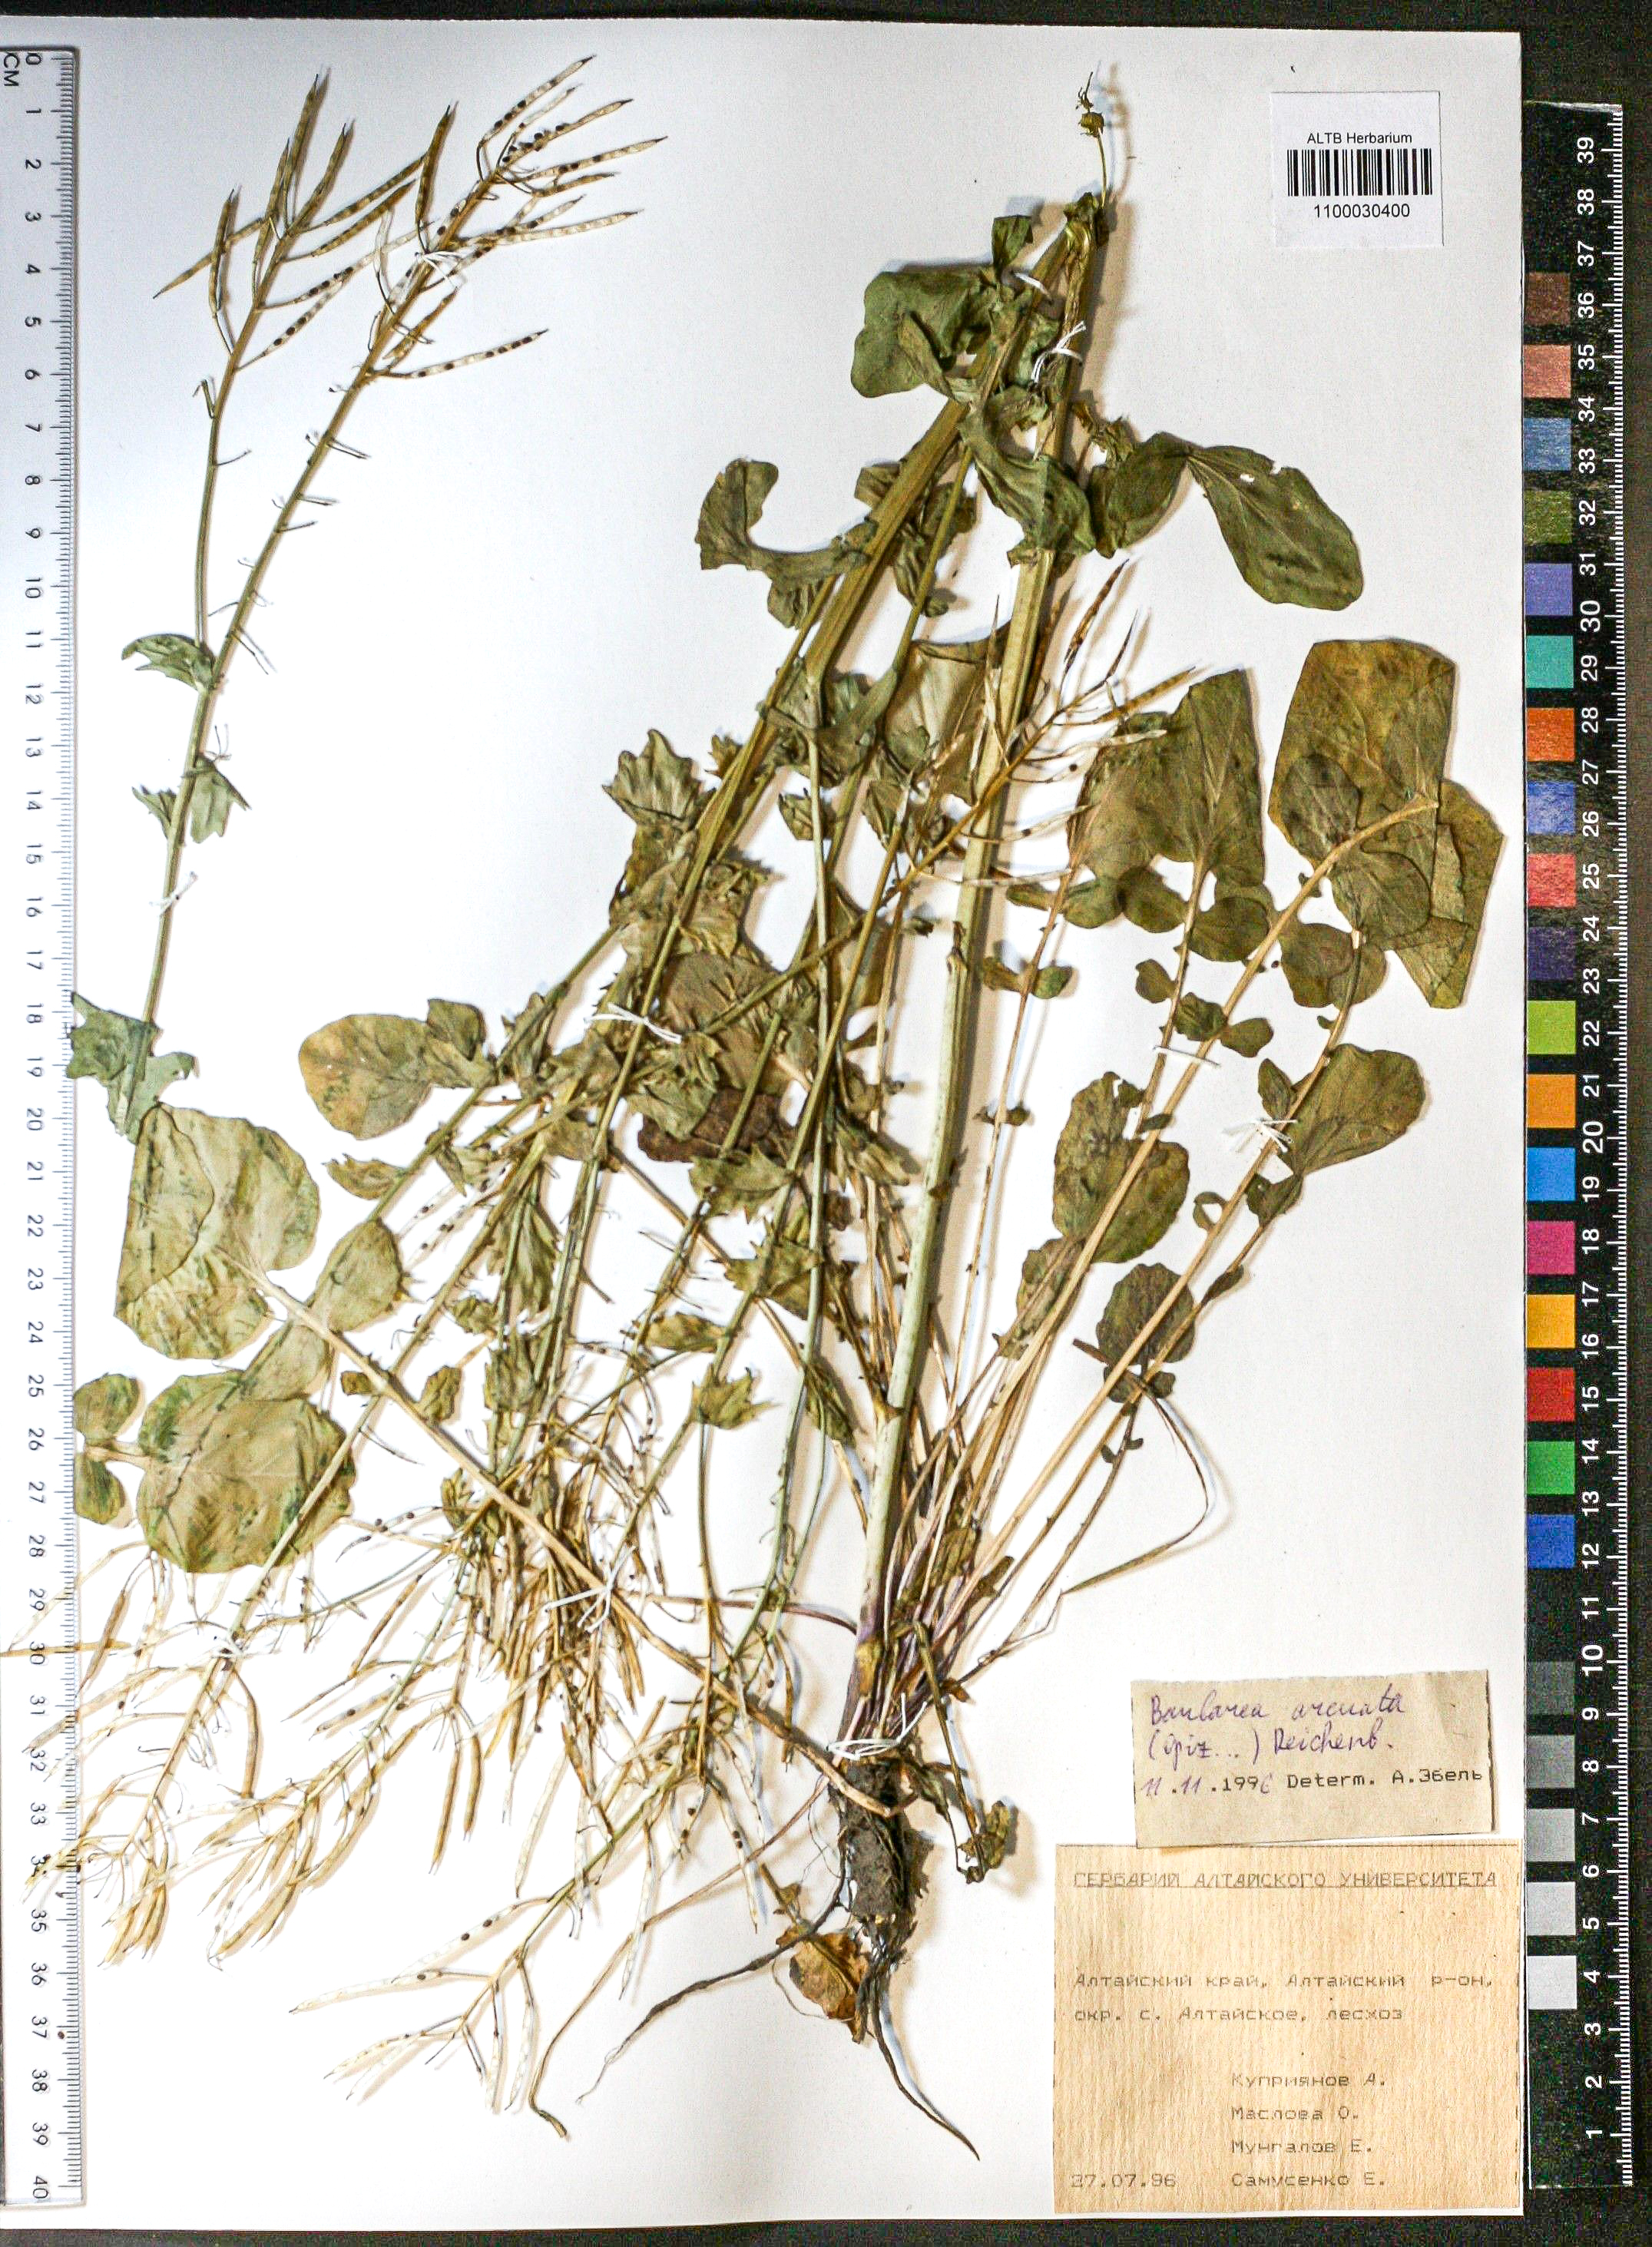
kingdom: Plantae
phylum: Tracheophyta
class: Magnoliopsida
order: Brassicales
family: Brassicaceae
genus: Barbarea
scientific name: Barbarea vulgaris
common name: Cressy-greens
